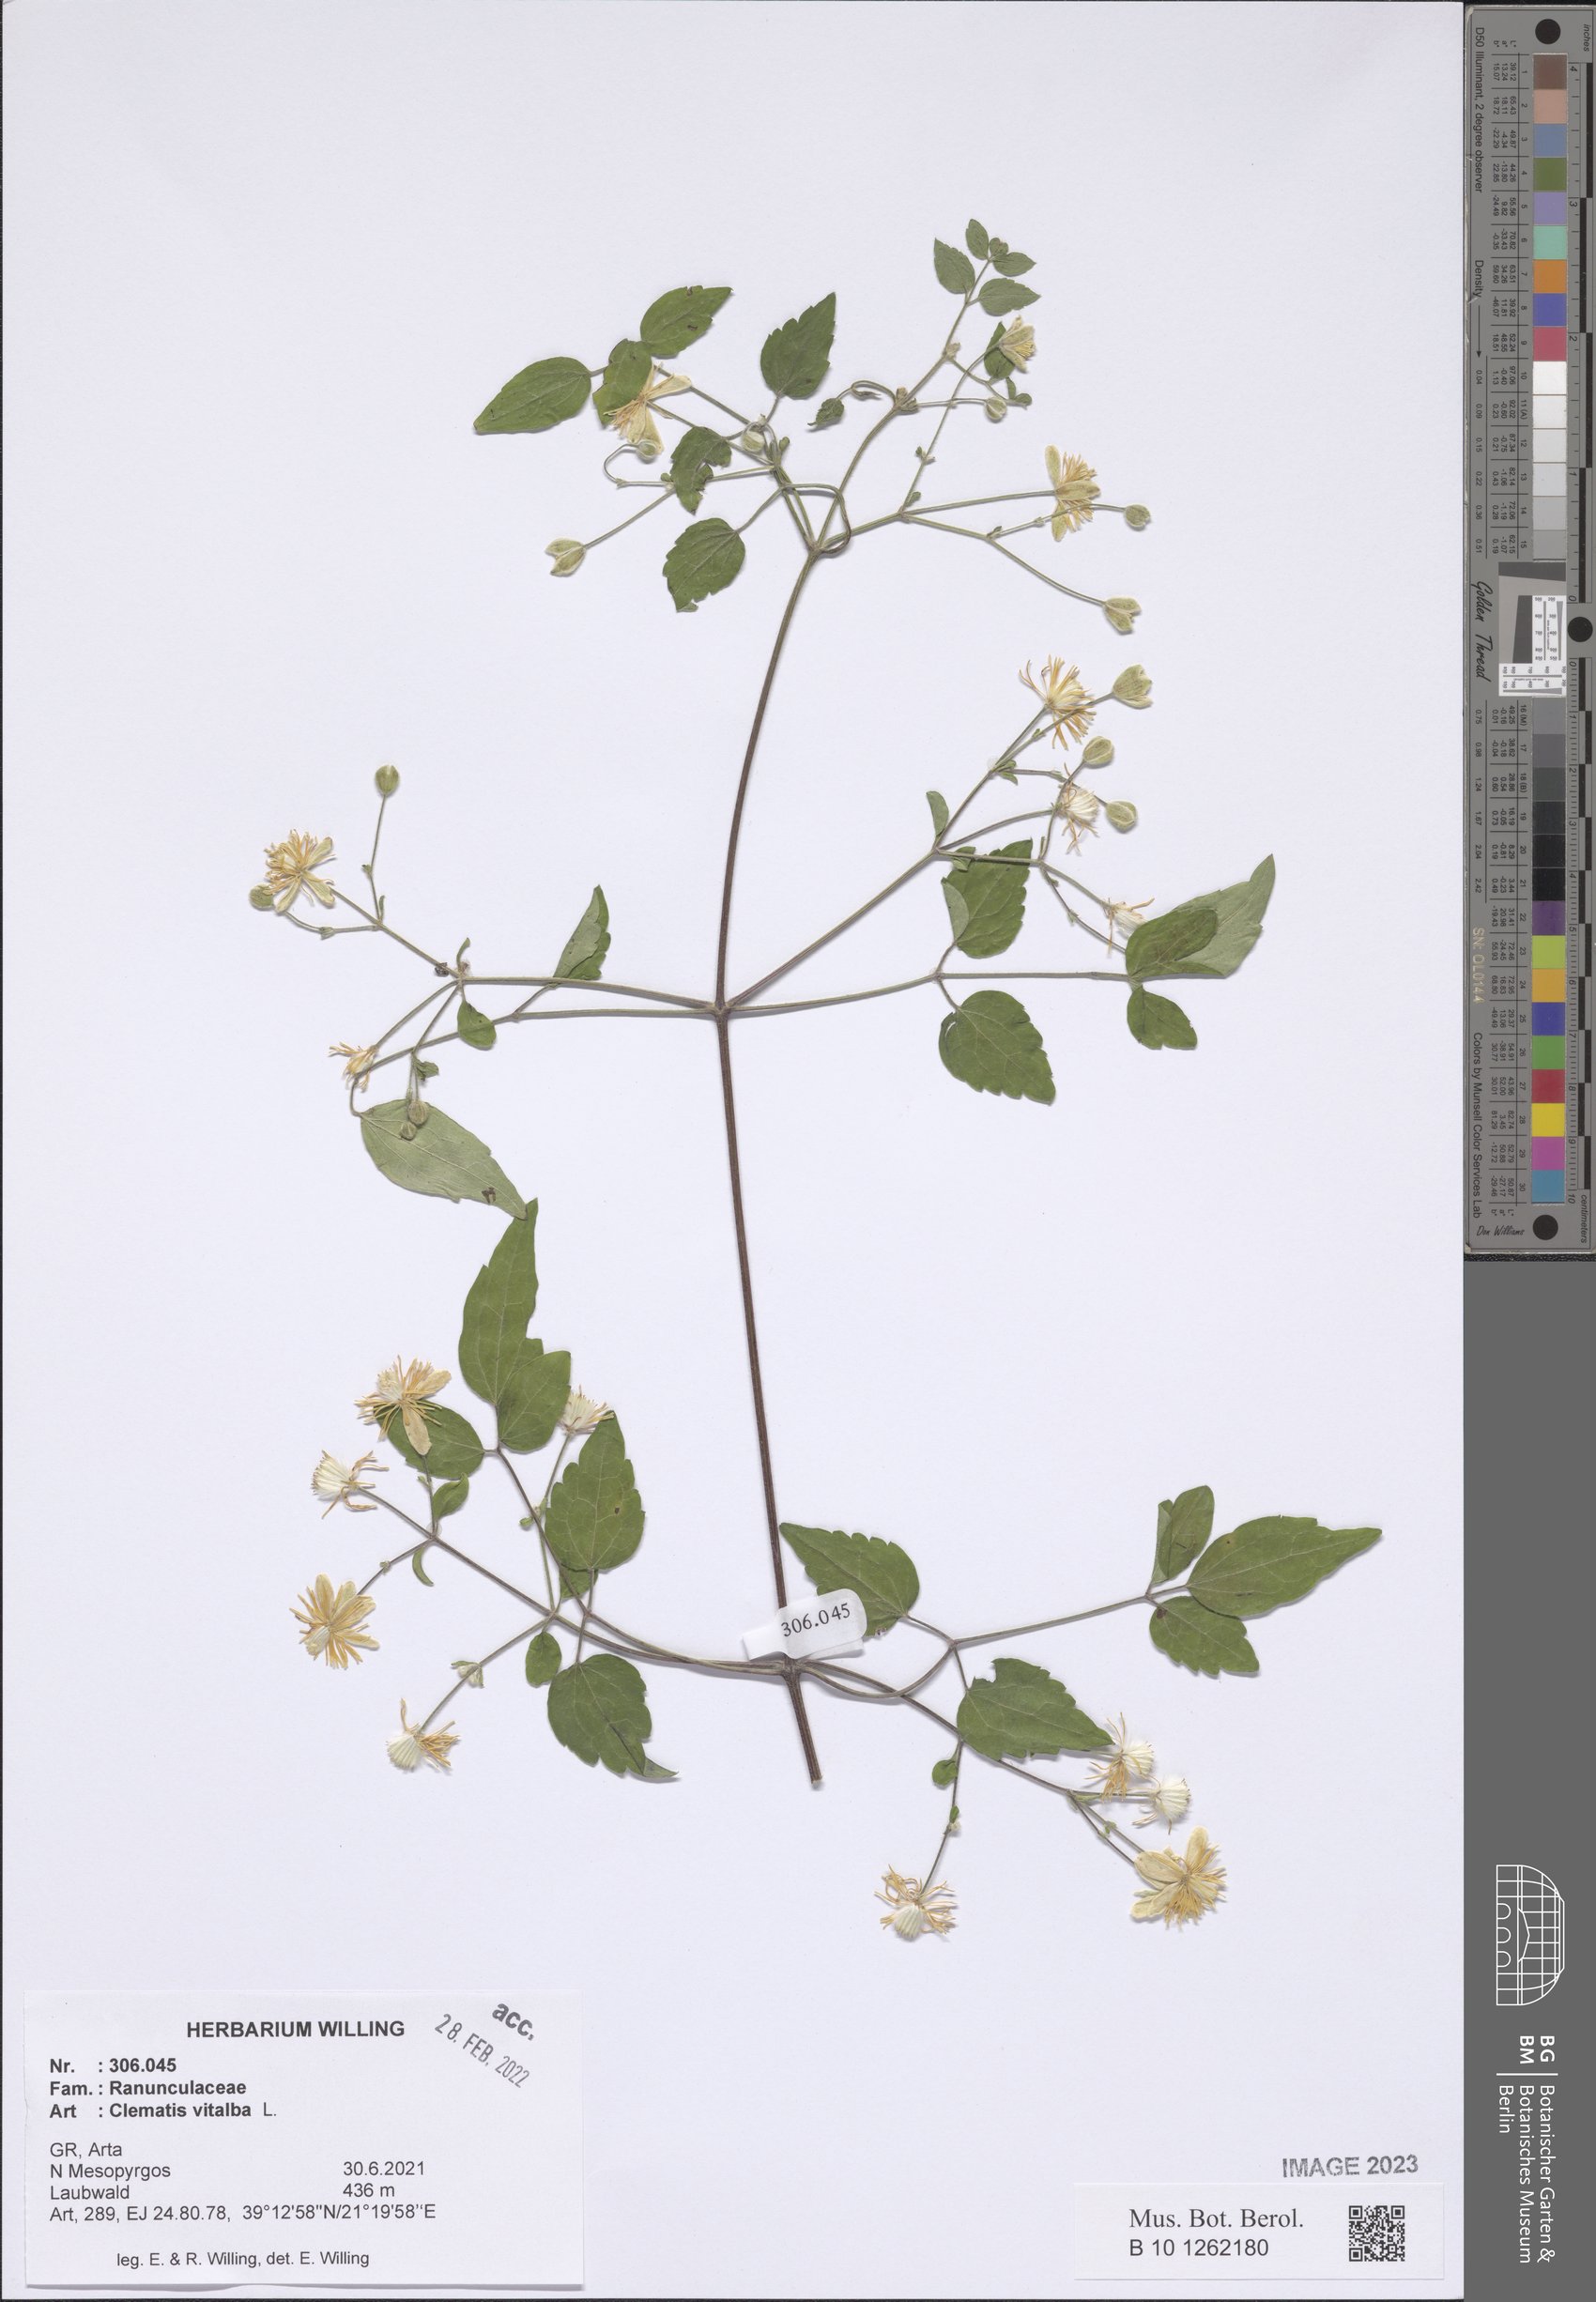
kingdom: Plantae
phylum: Tracheophyta
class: Magnoliopsida
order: Ranunculales
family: Ranunculaceae
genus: Clematis
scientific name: Clematis vitalba
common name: Evergreen clematis
